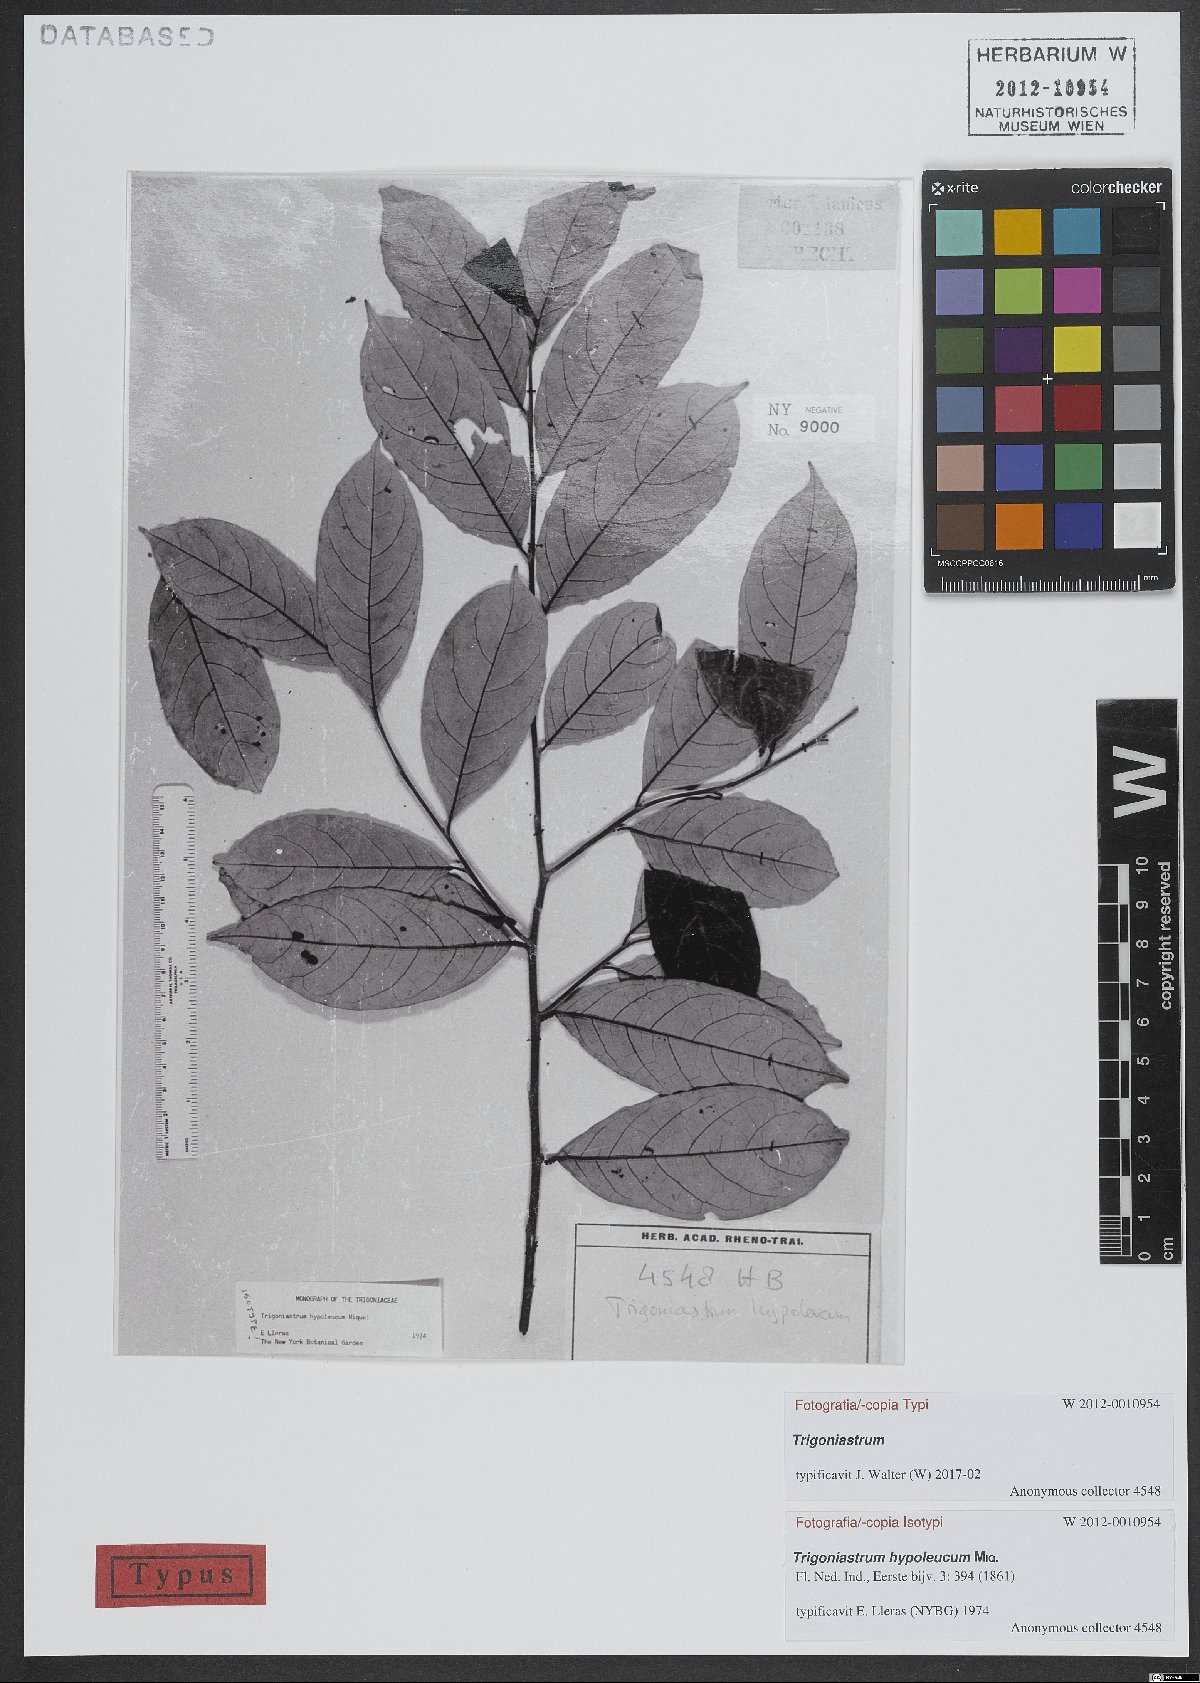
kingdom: Plantae
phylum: Tracheophyta
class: Magnoliopsida
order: Malpighiales
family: Trigoniaceae
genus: Trigoniastrum
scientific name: Trigoniastrum hypoleucum
